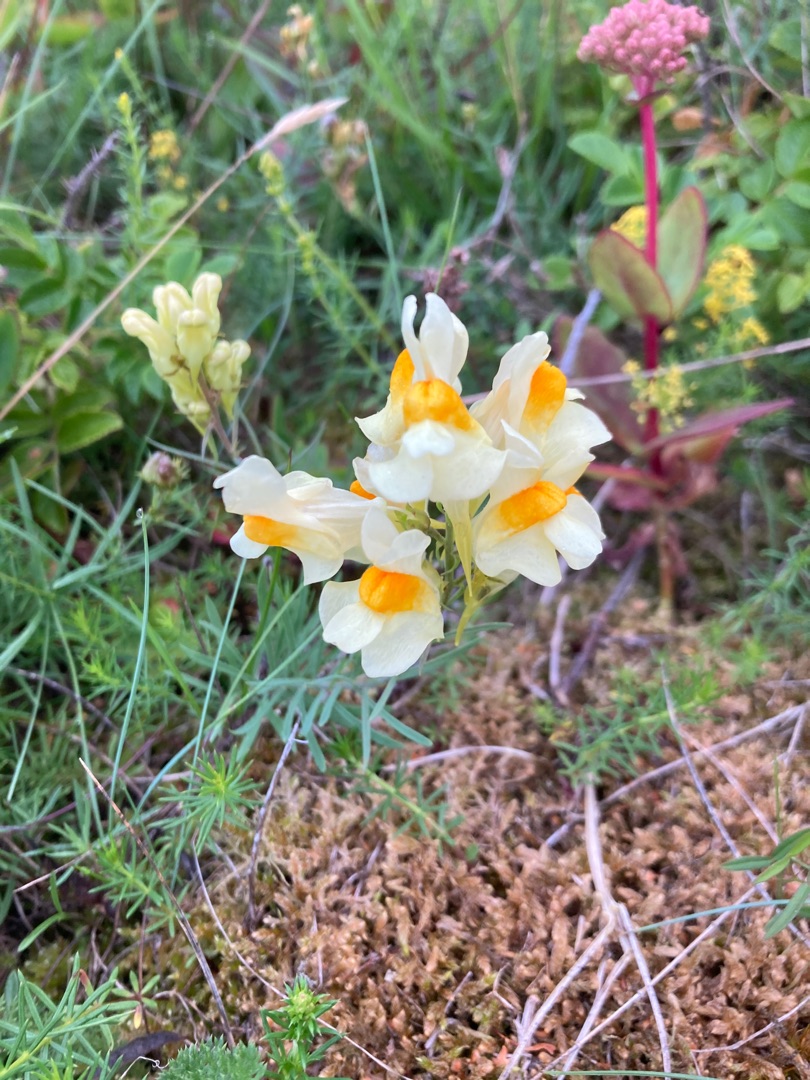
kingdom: Plantae
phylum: Tracheophyta
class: Magnoliopsida
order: Lamiales
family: Plantaginaceae
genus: Linaria
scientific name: Linaria vulgaris
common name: Almindelig torskemund
